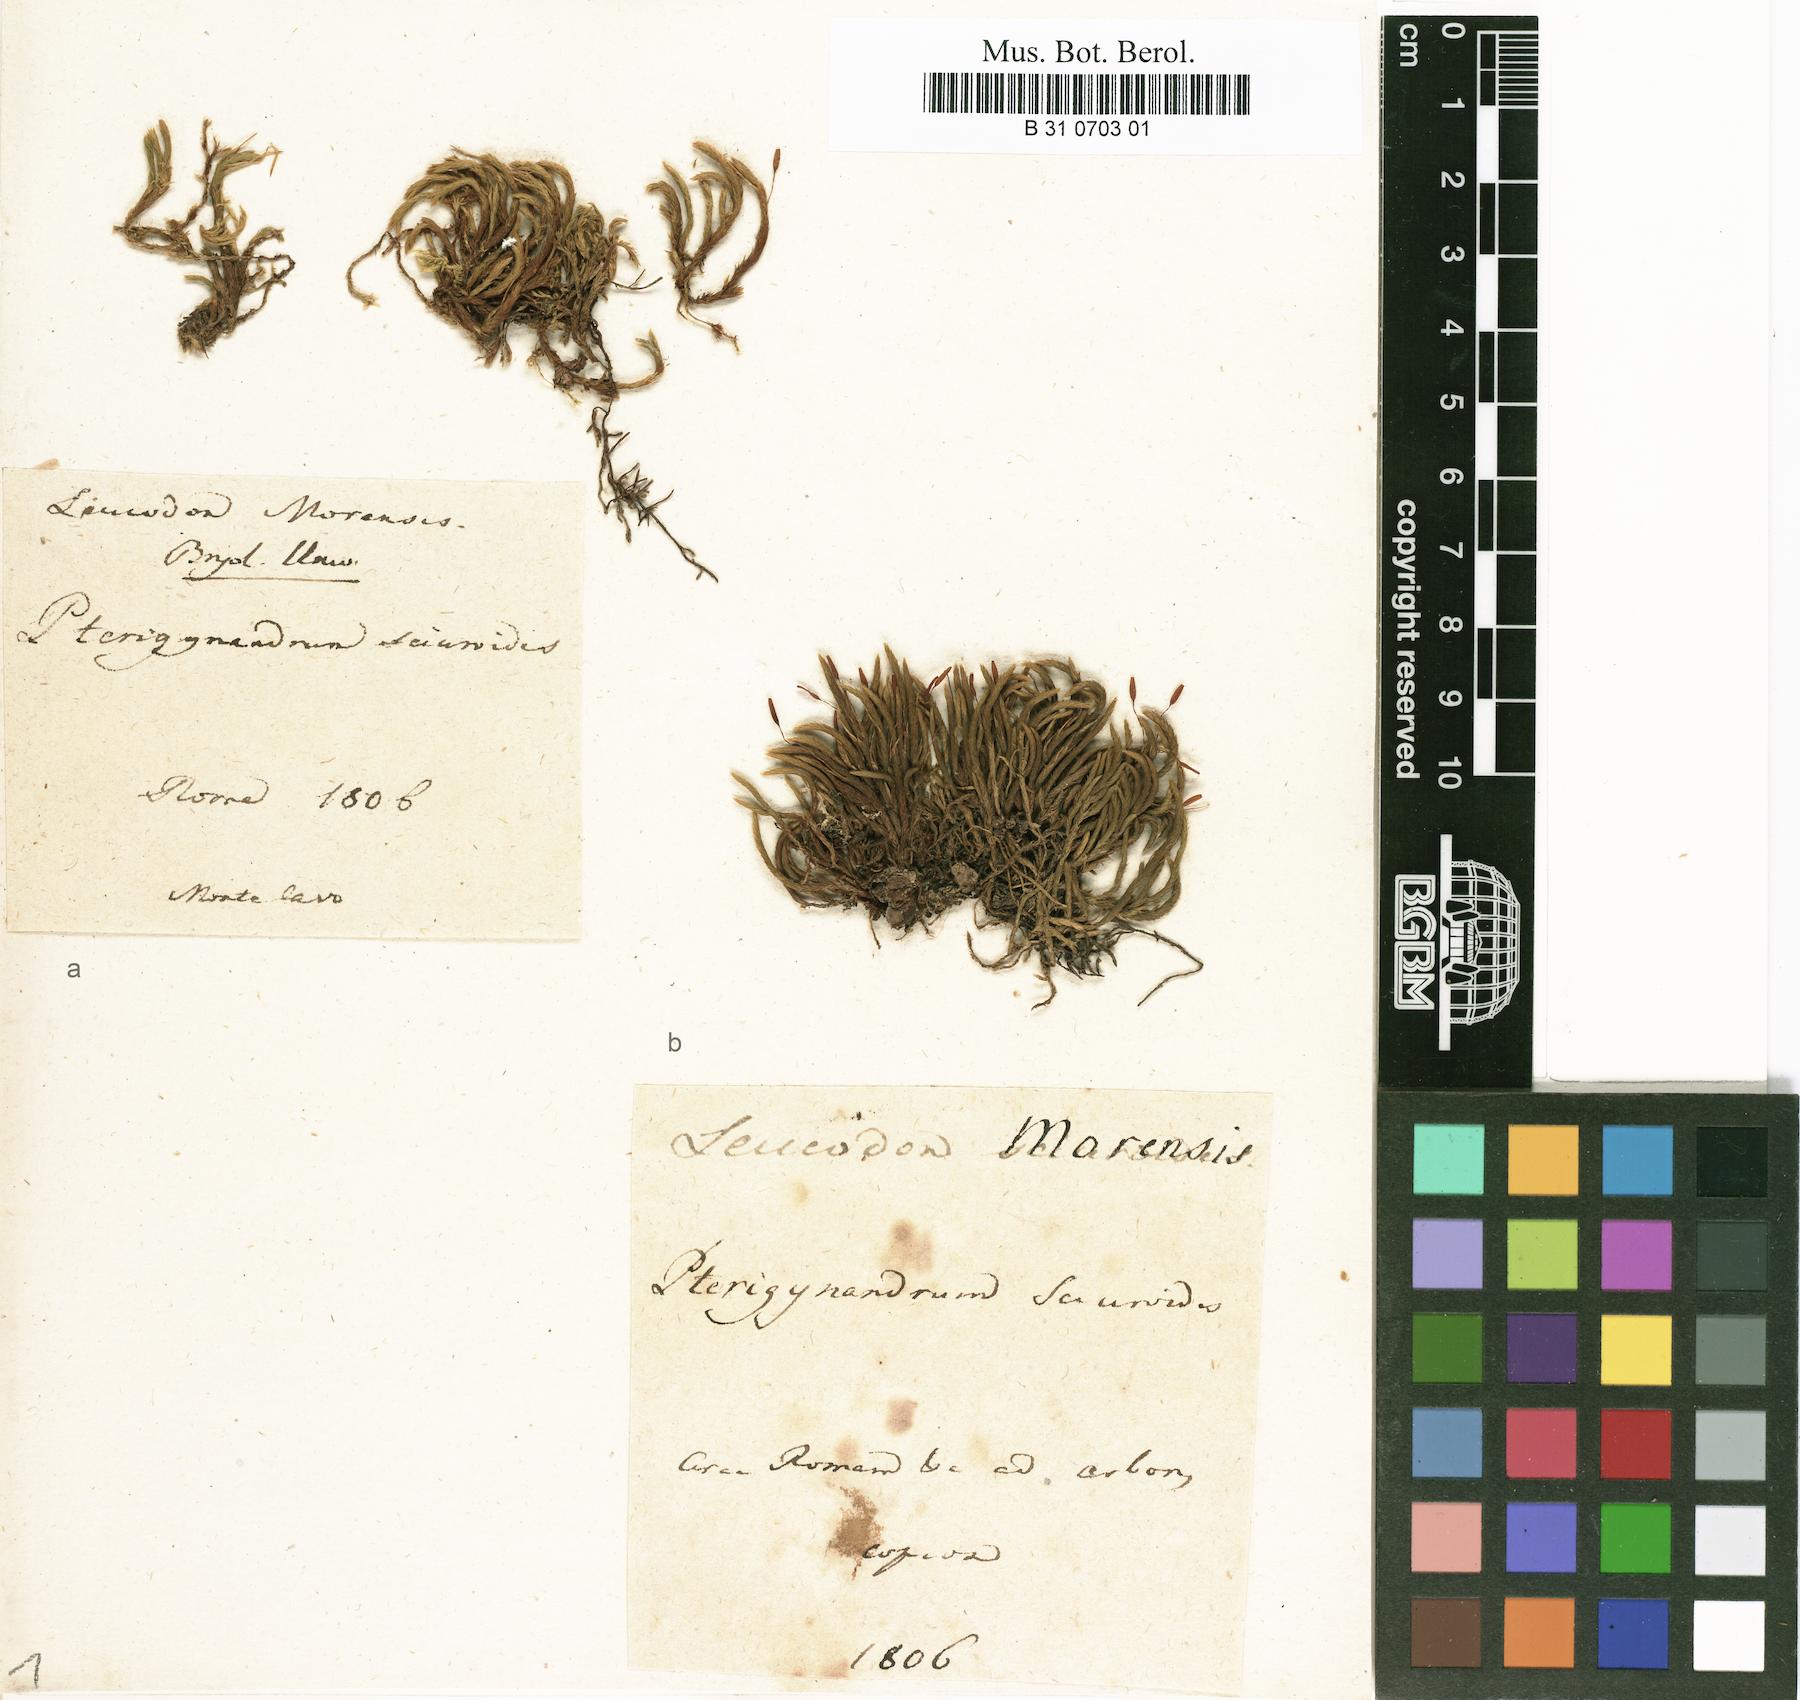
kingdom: Plantae
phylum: Bryophyta
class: Bryopsida
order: Hypnales
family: Leucodontaceae
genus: Leucodon
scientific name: Leucodon sciuroides
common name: Squirrel-tail moss
